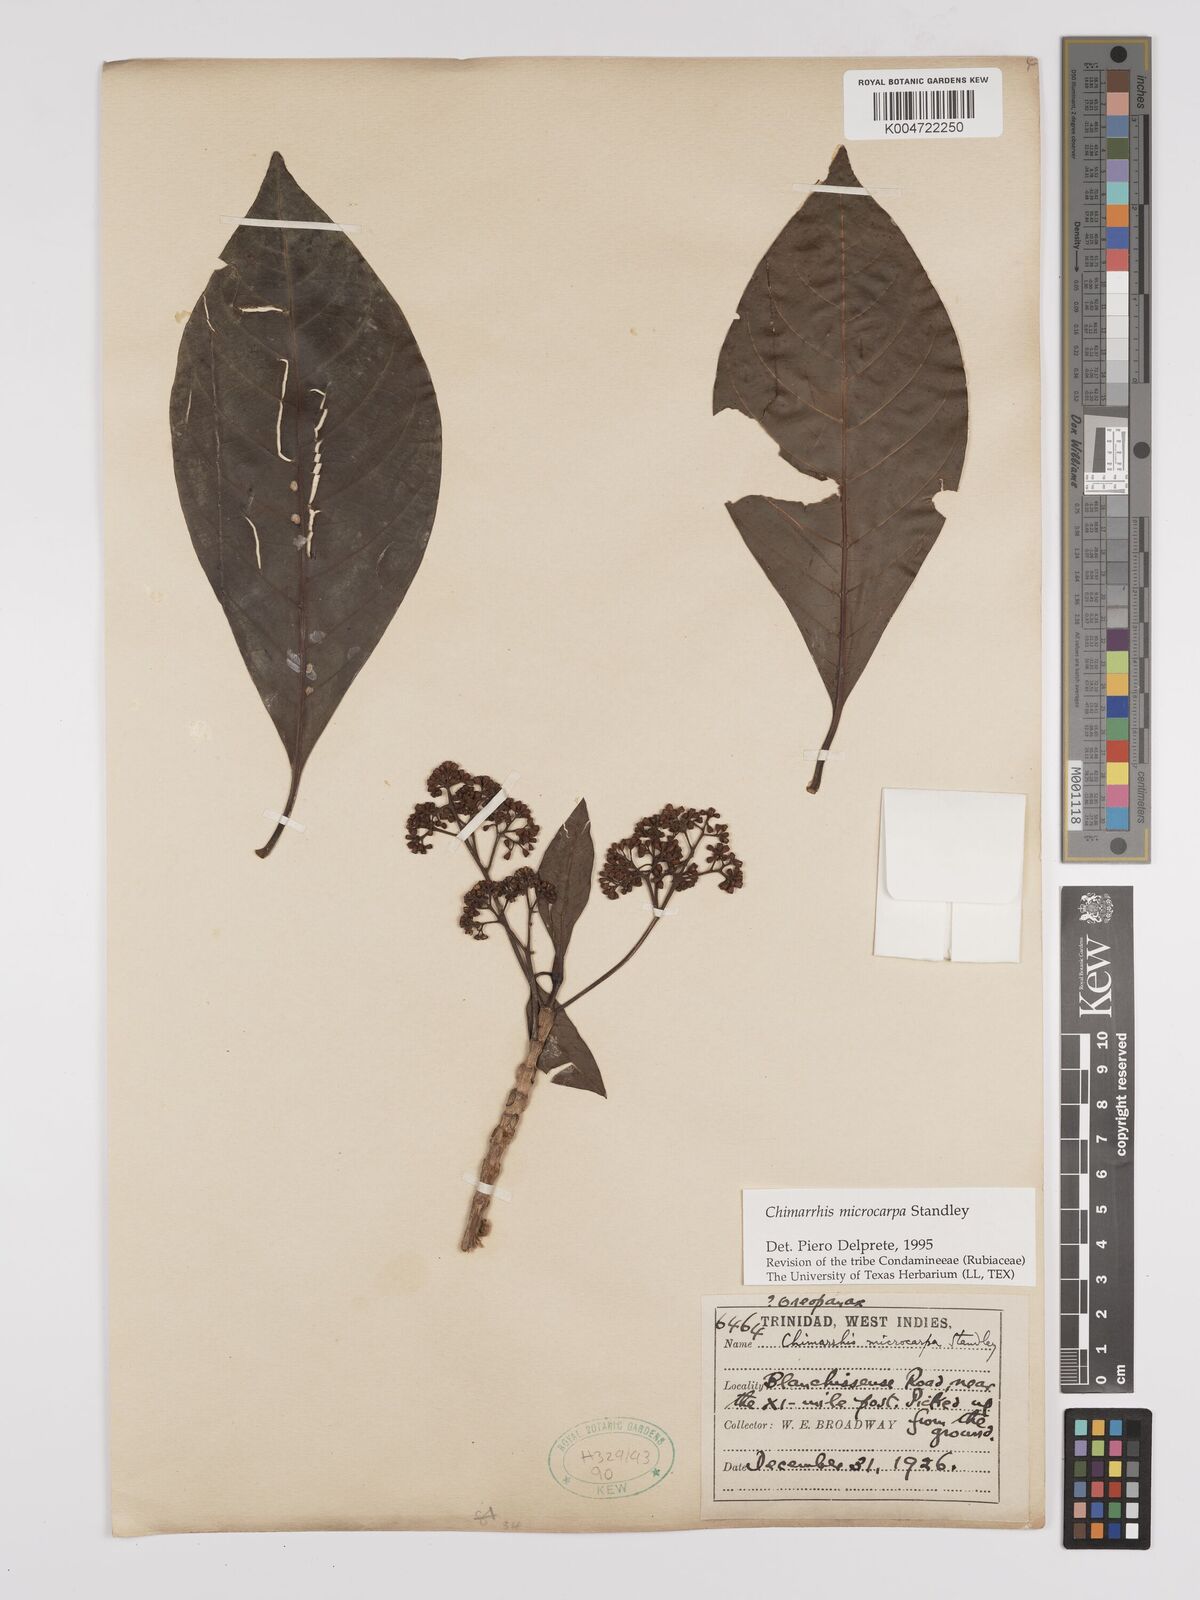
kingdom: Plantae
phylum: Tracheophyta
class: Magnoliopsida
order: Gentianales
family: Rubiaceae
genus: Chimarrhis
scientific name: Chimarrhis microcarpa
